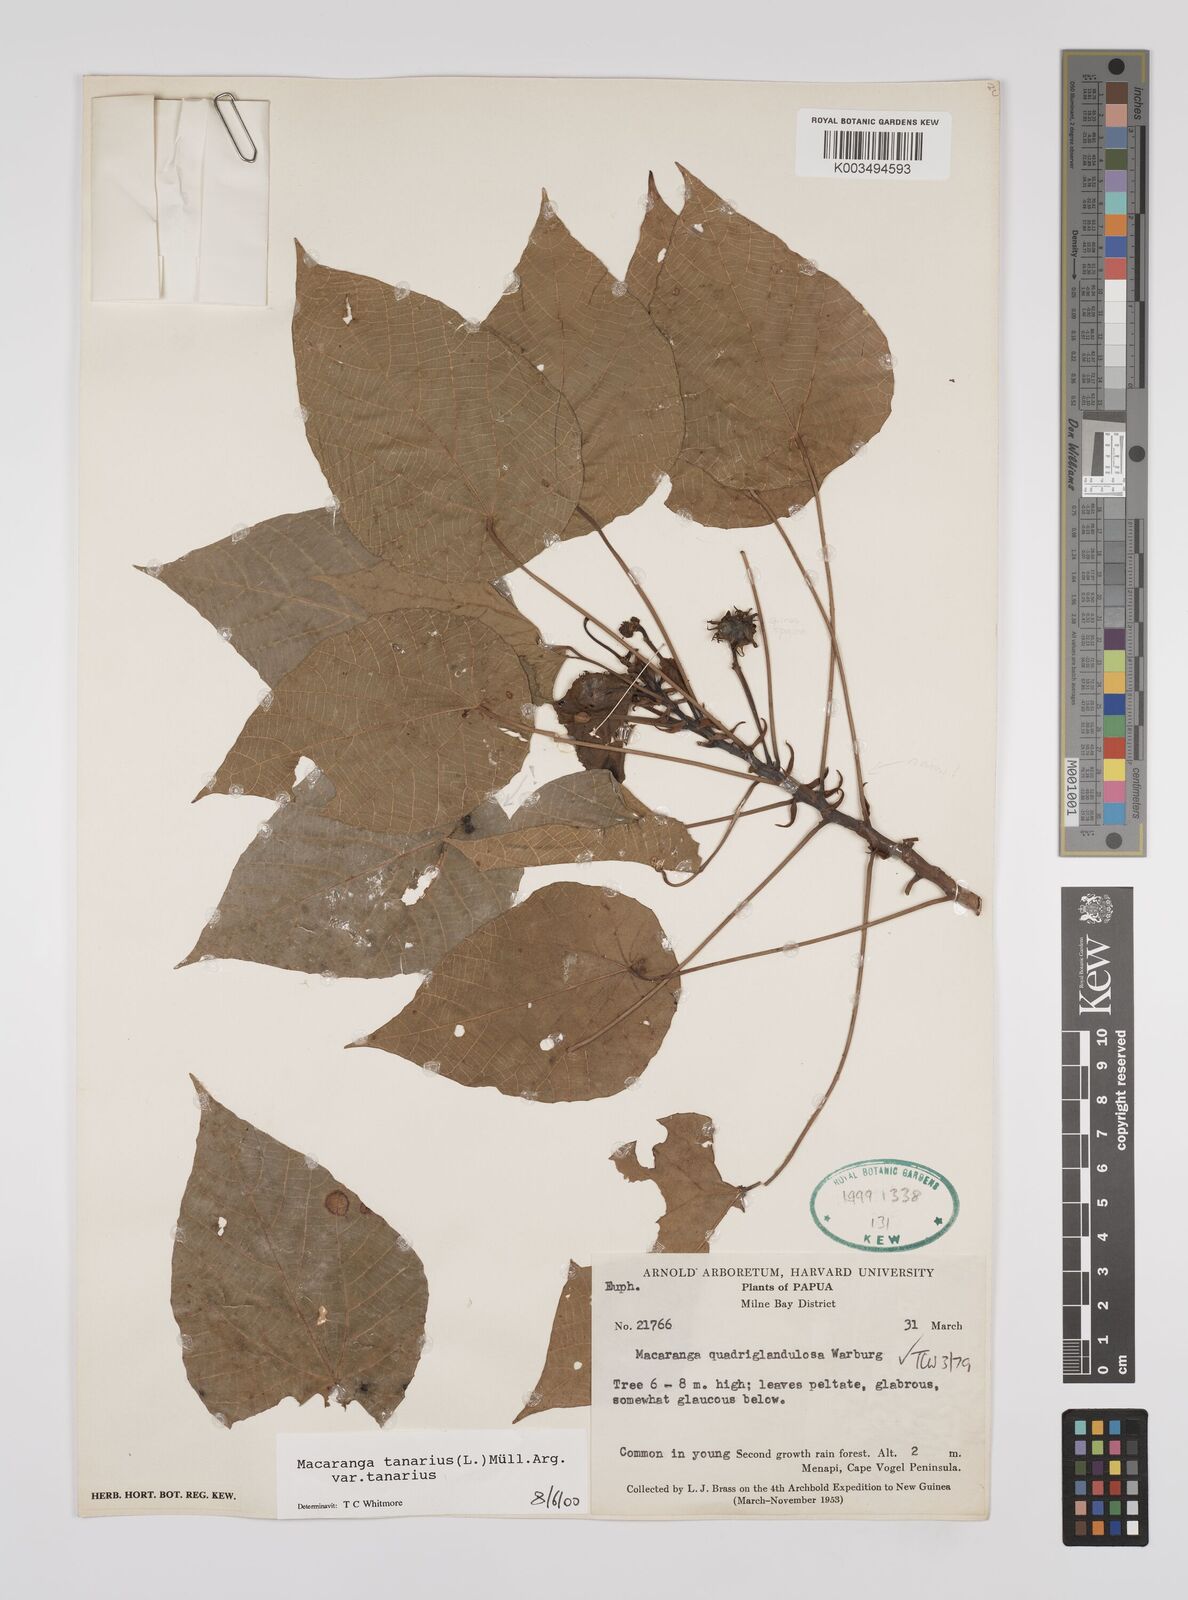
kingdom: Plantae
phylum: Tracheophyta
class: Magnoliopsida
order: Malpighiales
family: Euphorbiaceae
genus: Macaranga
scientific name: Macaranga tanarius
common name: Parasol leaf tree
